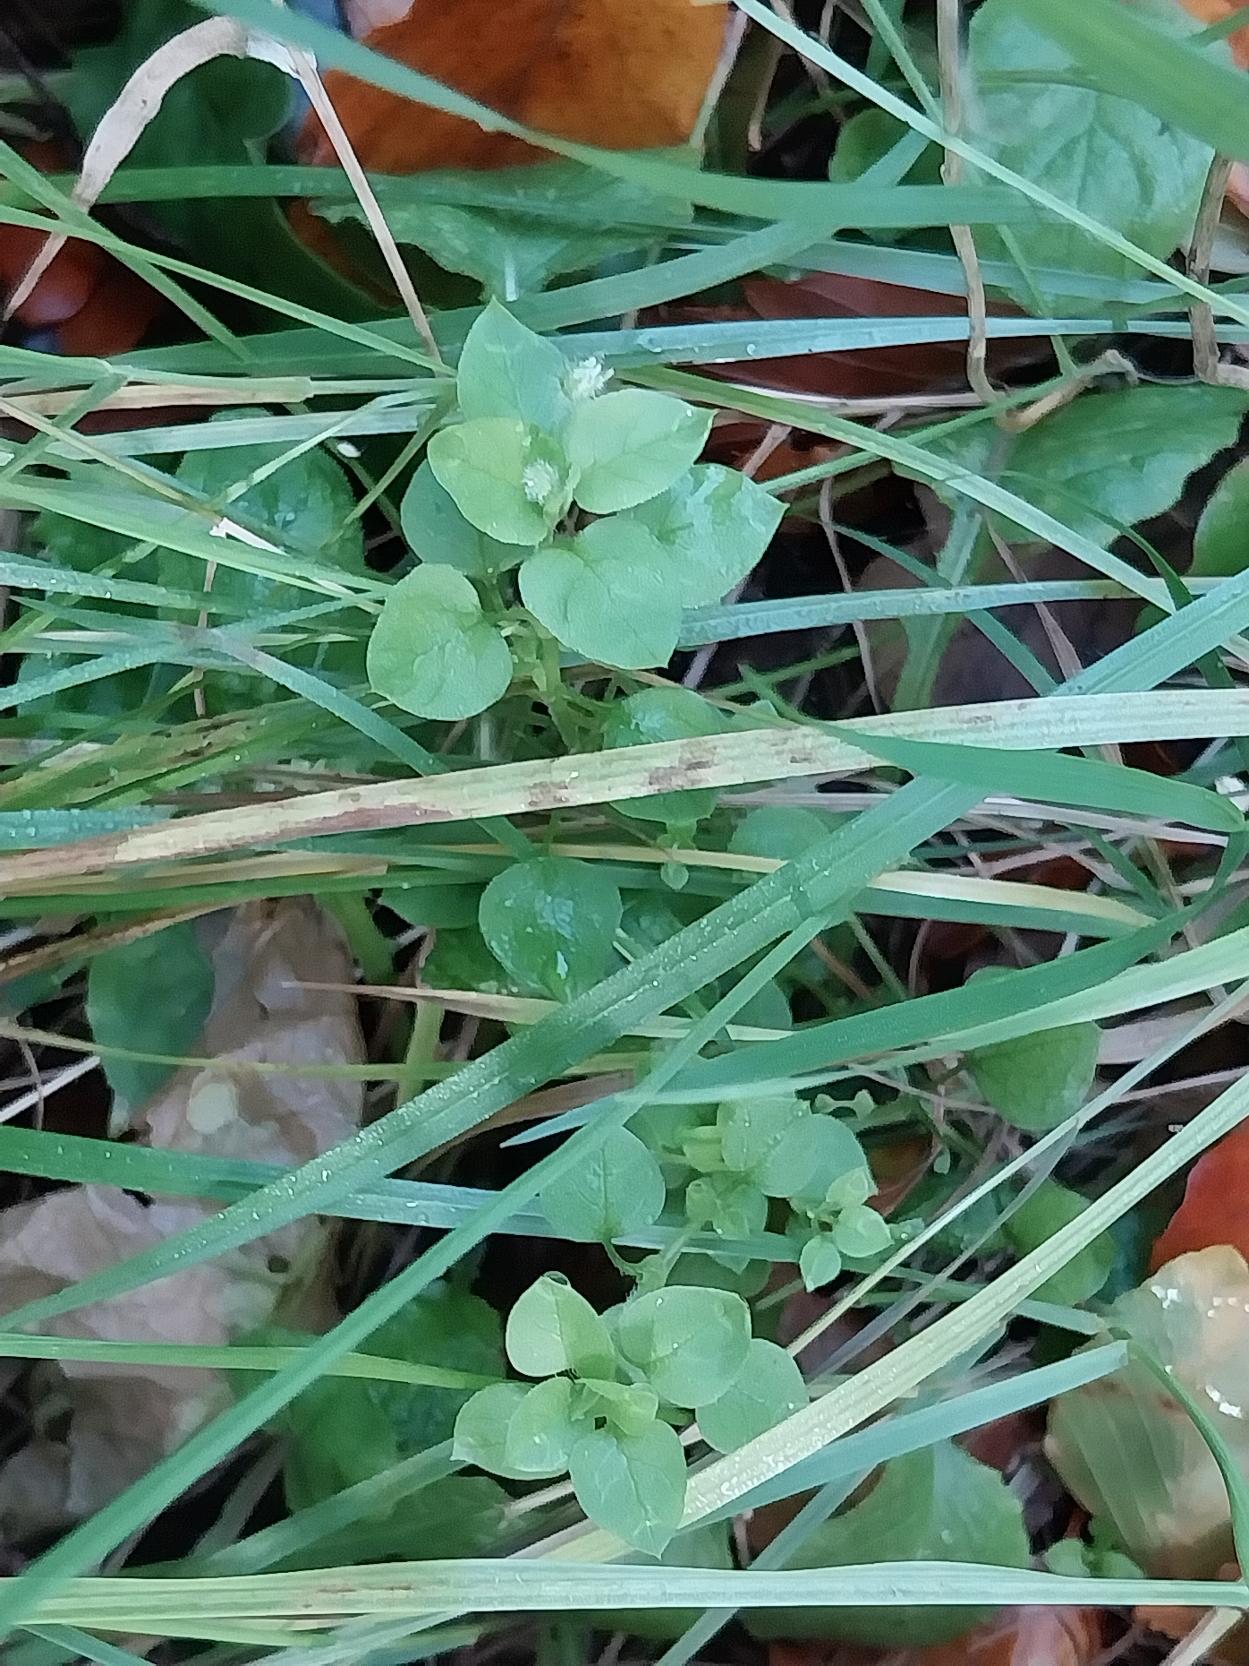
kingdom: Plantae
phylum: Tracheophyta
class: Magnoliopsida
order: Caryophyllales
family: Caryophyllaceae
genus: Stellaria
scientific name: Stellaria media
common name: Almindelig fuglegræs
